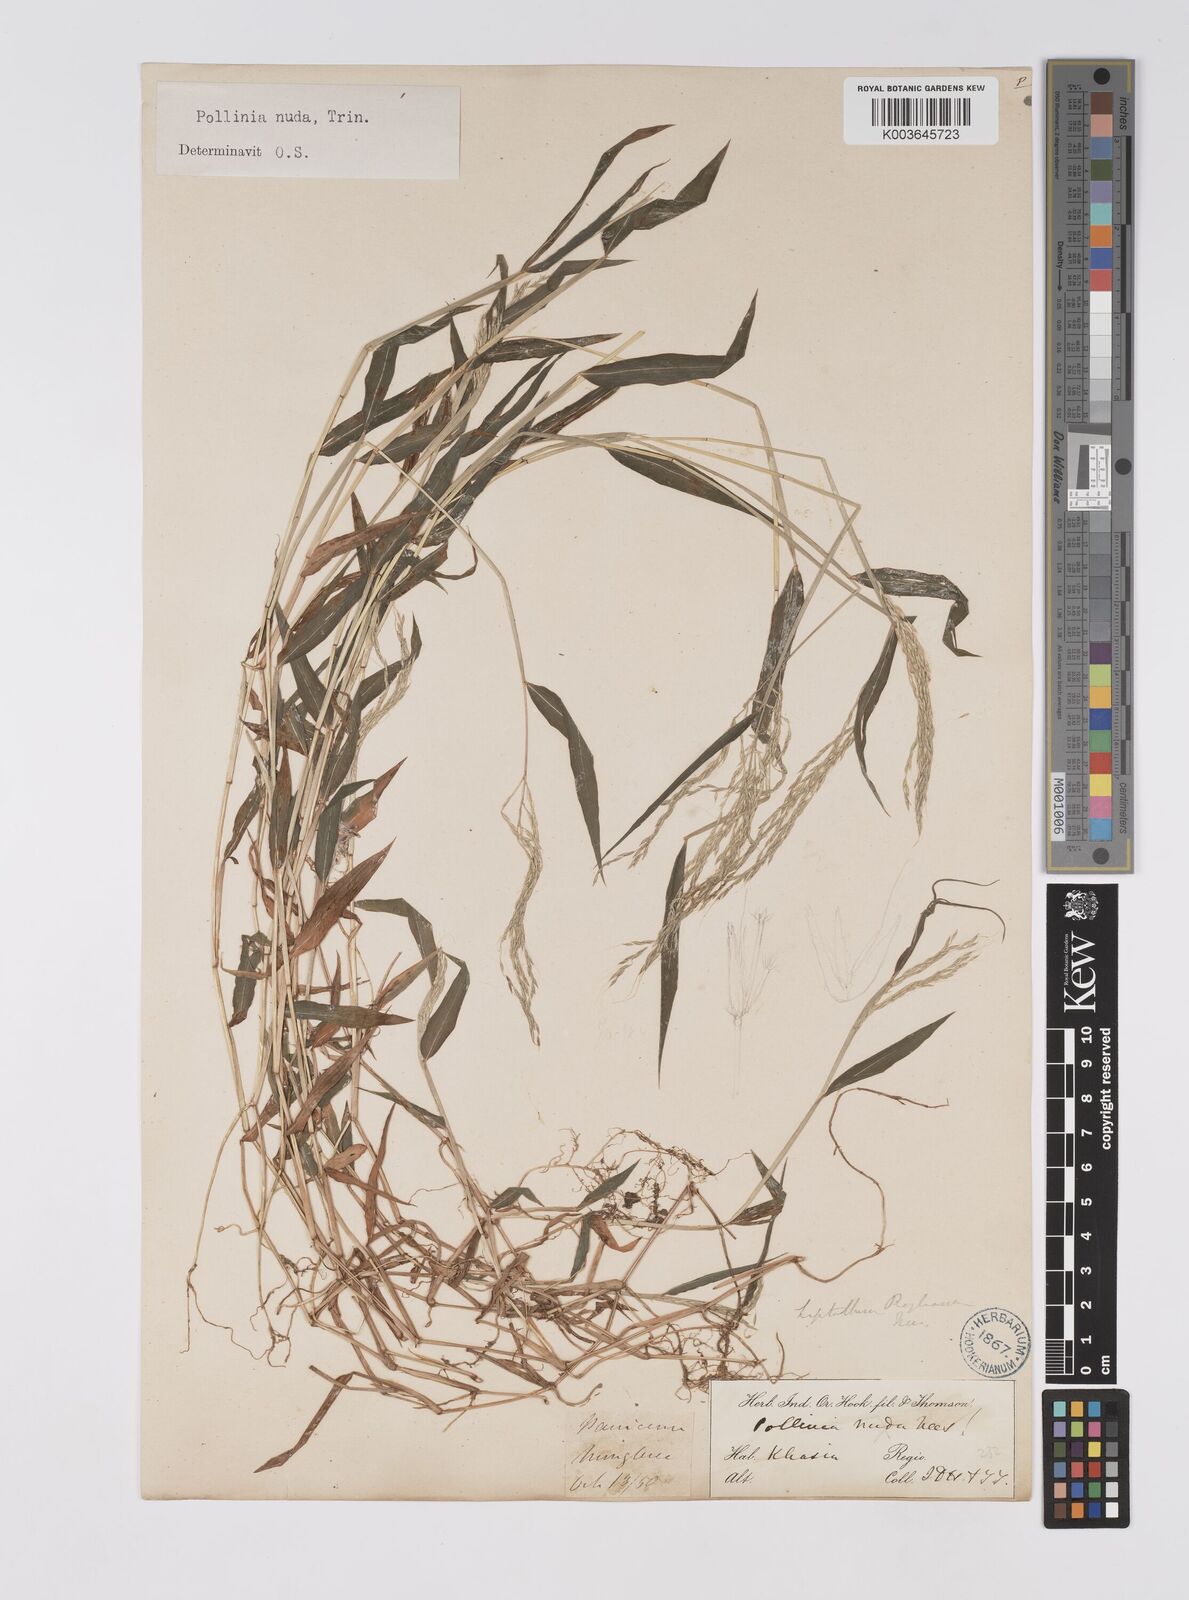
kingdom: Plantae
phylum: Tracheophyta
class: Liliopsida
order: Poales
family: Poaceae
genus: Microstegium
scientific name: Microstegium nudum
